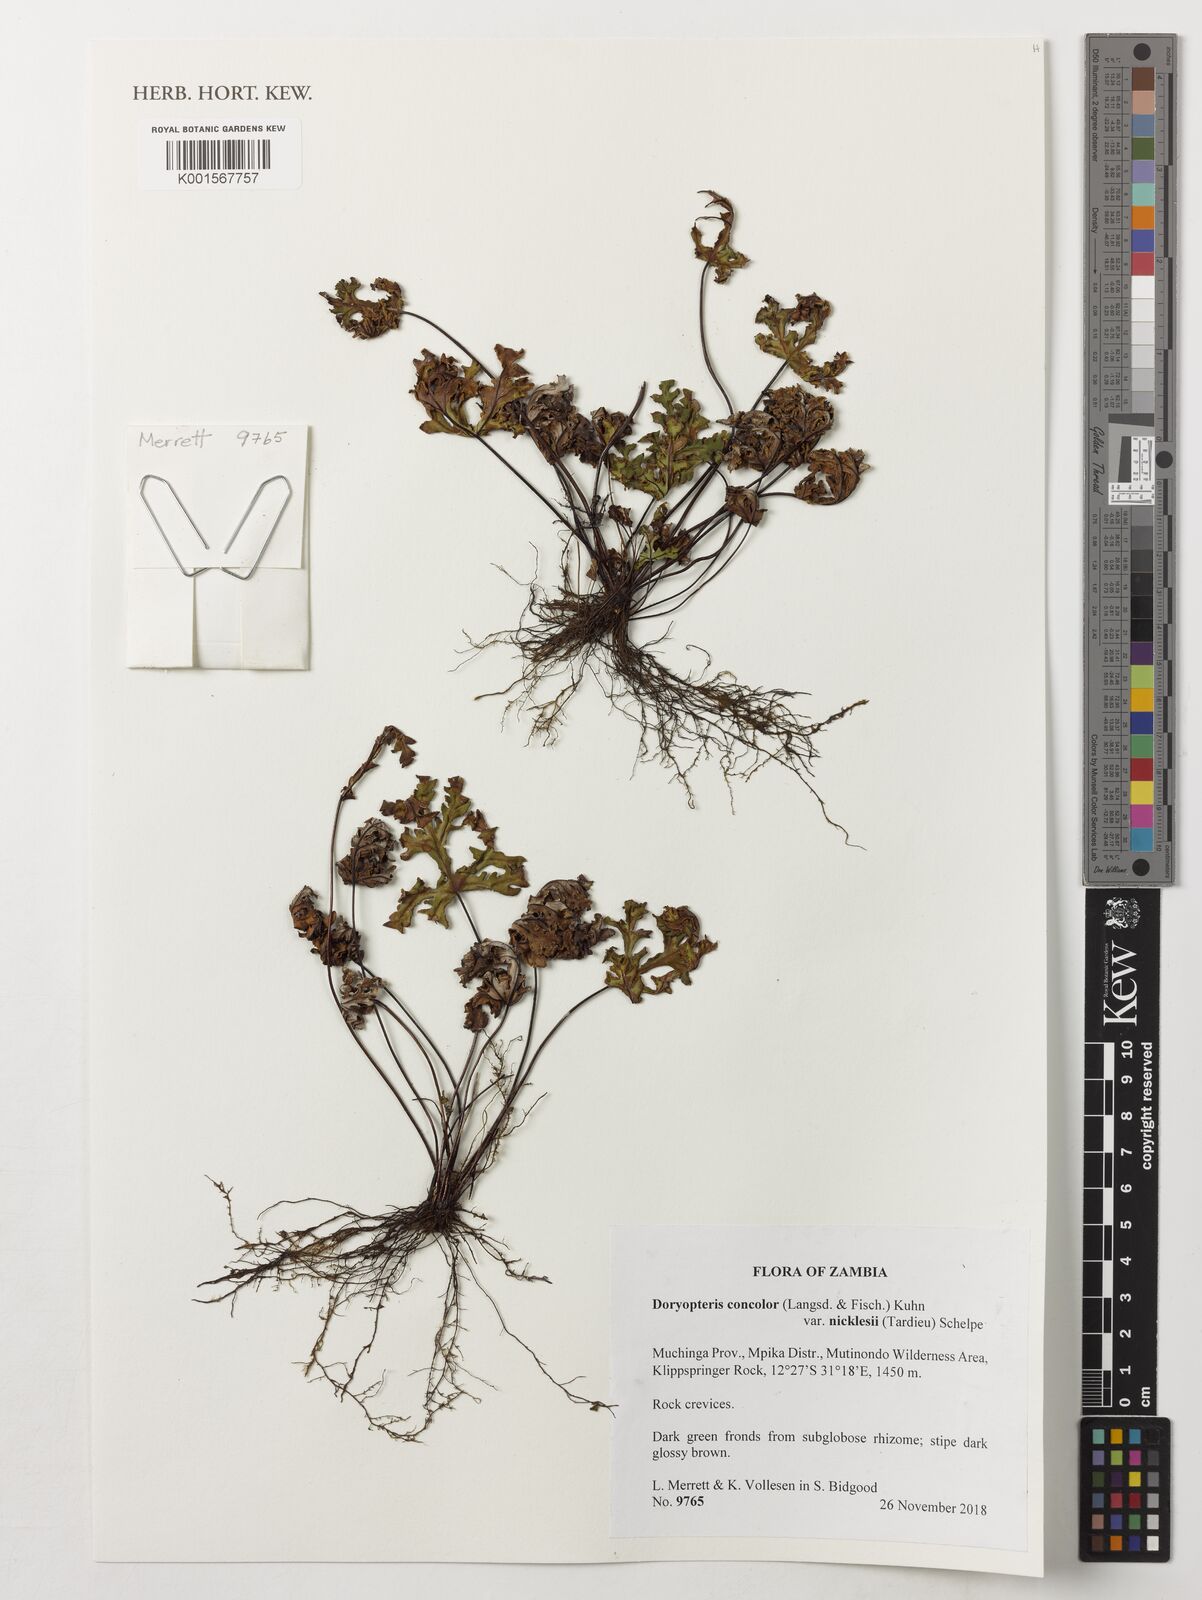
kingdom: Plantae
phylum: Tracheophyta
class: Polypodiopsida
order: Polypodiales
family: Pteridaceae
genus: Doryopteris
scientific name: Doryopteris kirkii
